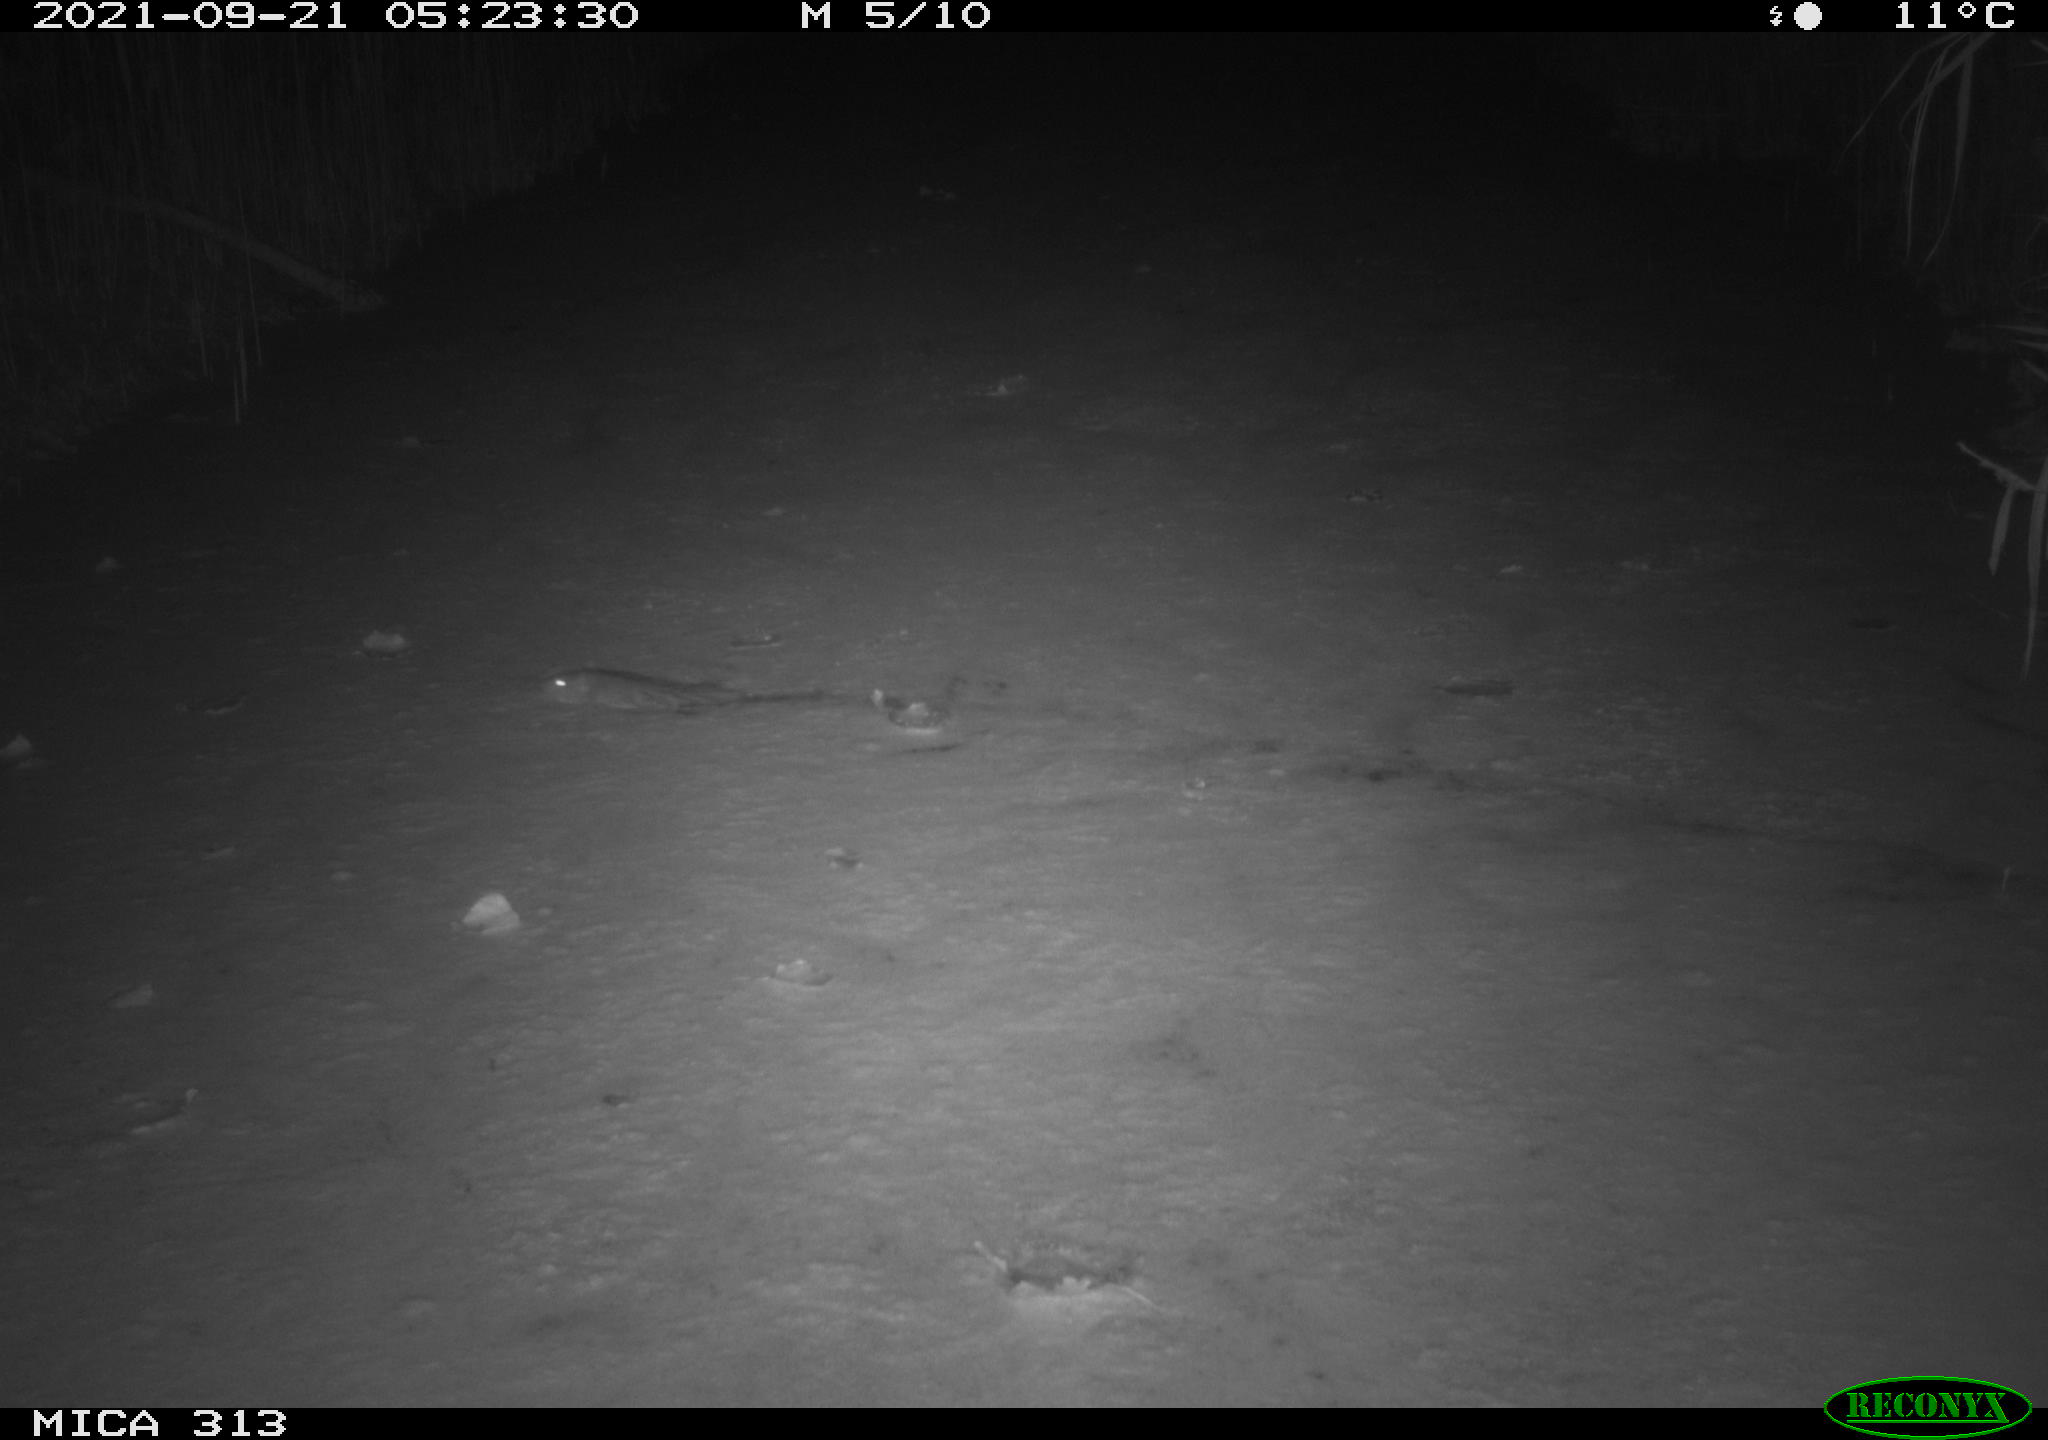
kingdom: Animalia
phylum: Chordata
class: Mammalia
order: Rodentia
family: Muridae
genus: Rattus
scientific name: Rattus norvegicus
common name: Brown rat
